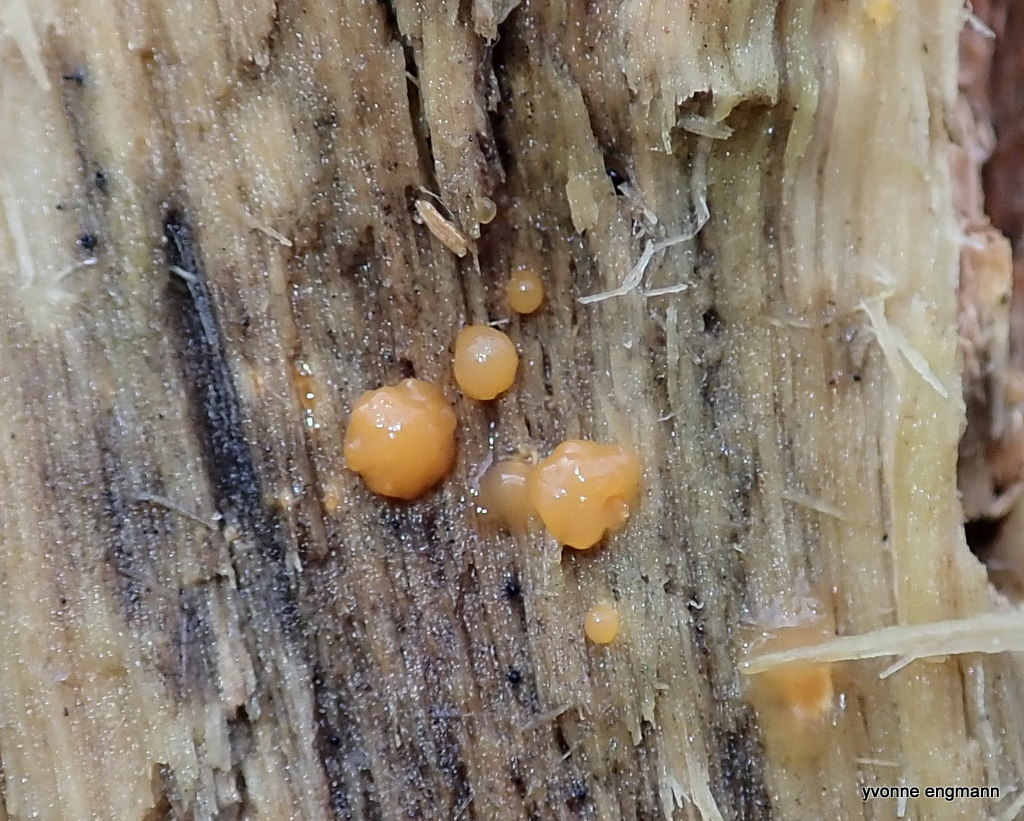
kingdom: Fungi
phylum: Basidiomycota
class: Dacrymycetes
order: Dacrymycetales
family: Dacrymycetaceae
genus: Dacrymyces
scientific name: Dacrymyces stillatus
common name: almindelig tåresvamp
